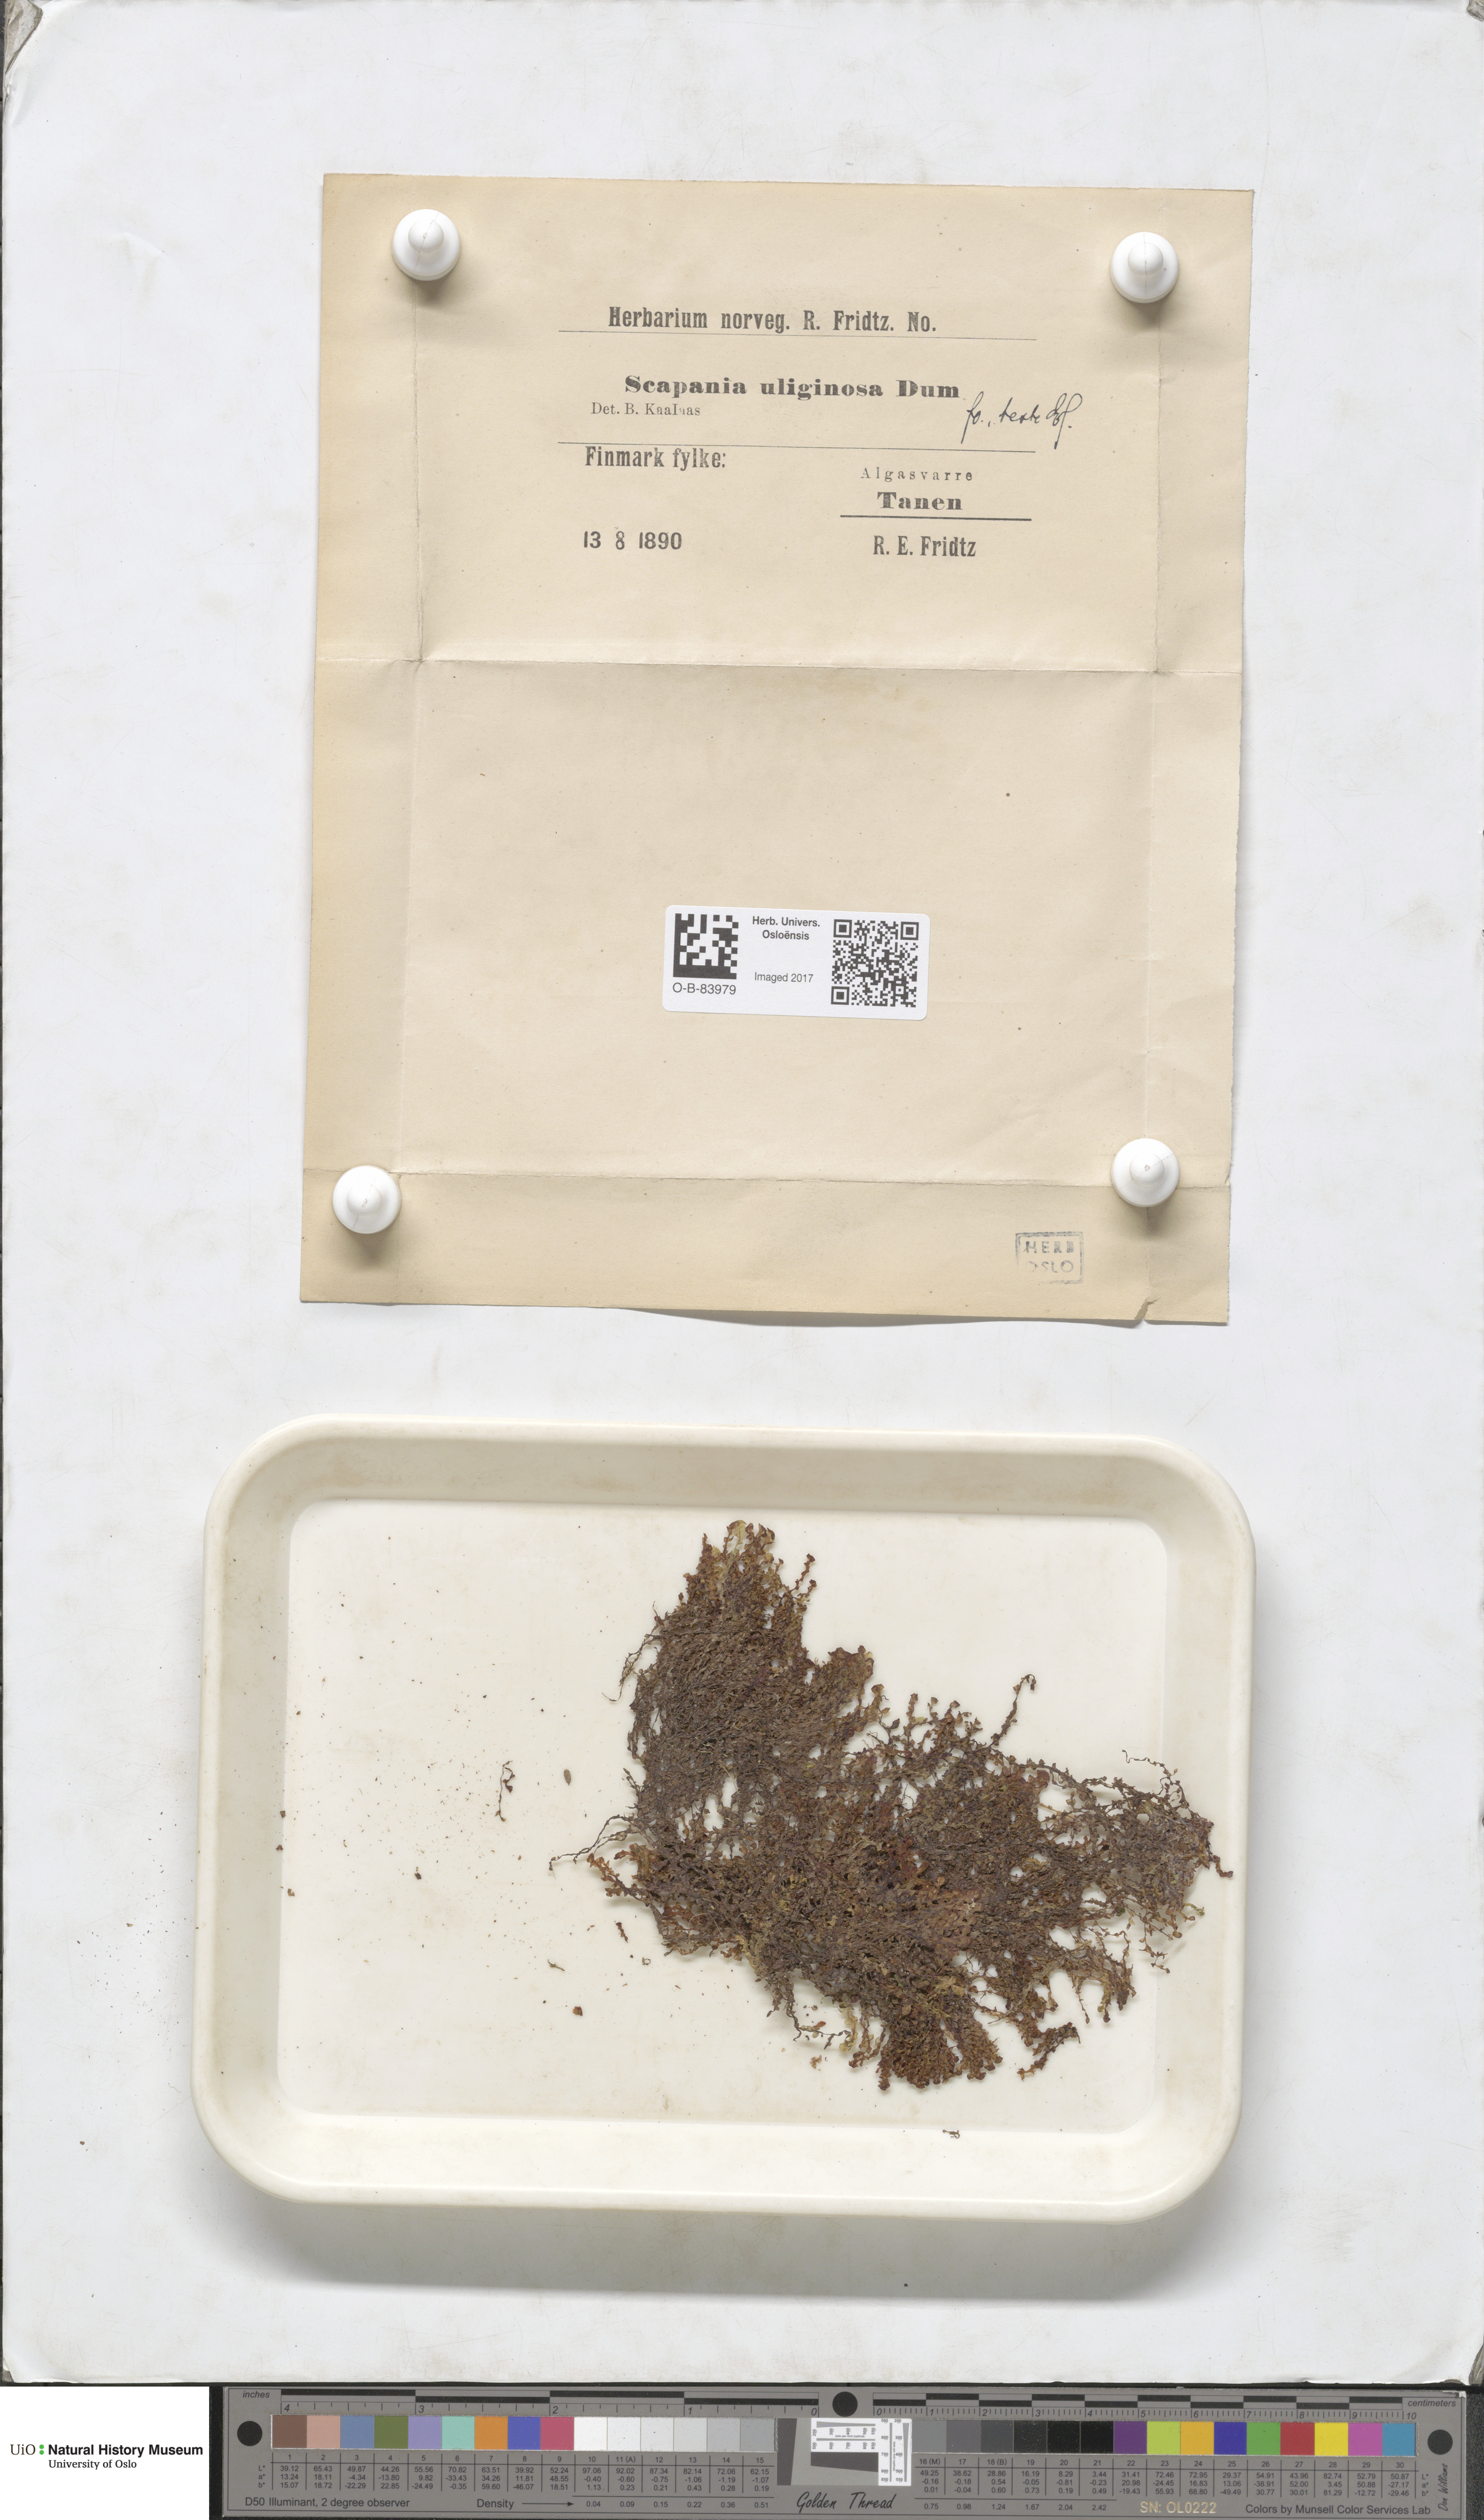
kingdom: Plantae
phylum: Marchantiophyta
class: Jungermanniopsida
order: Jungermanniales
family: Scapaniaceae
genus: Scapania
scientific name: Scapania uliginosa
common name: Marsh earwort
